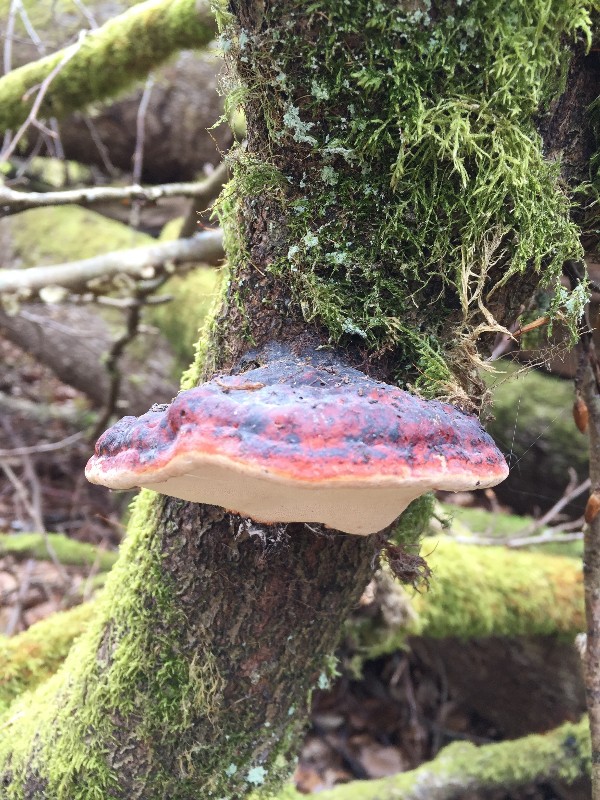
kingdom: Fungi
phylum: Basidiomycota
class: Agaricomycetes
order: Polyporales
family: Fomitopsidaceae
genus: Fomitopsis
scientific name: Fomitopsis pinicola
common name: randbæltet hovporesvamp
